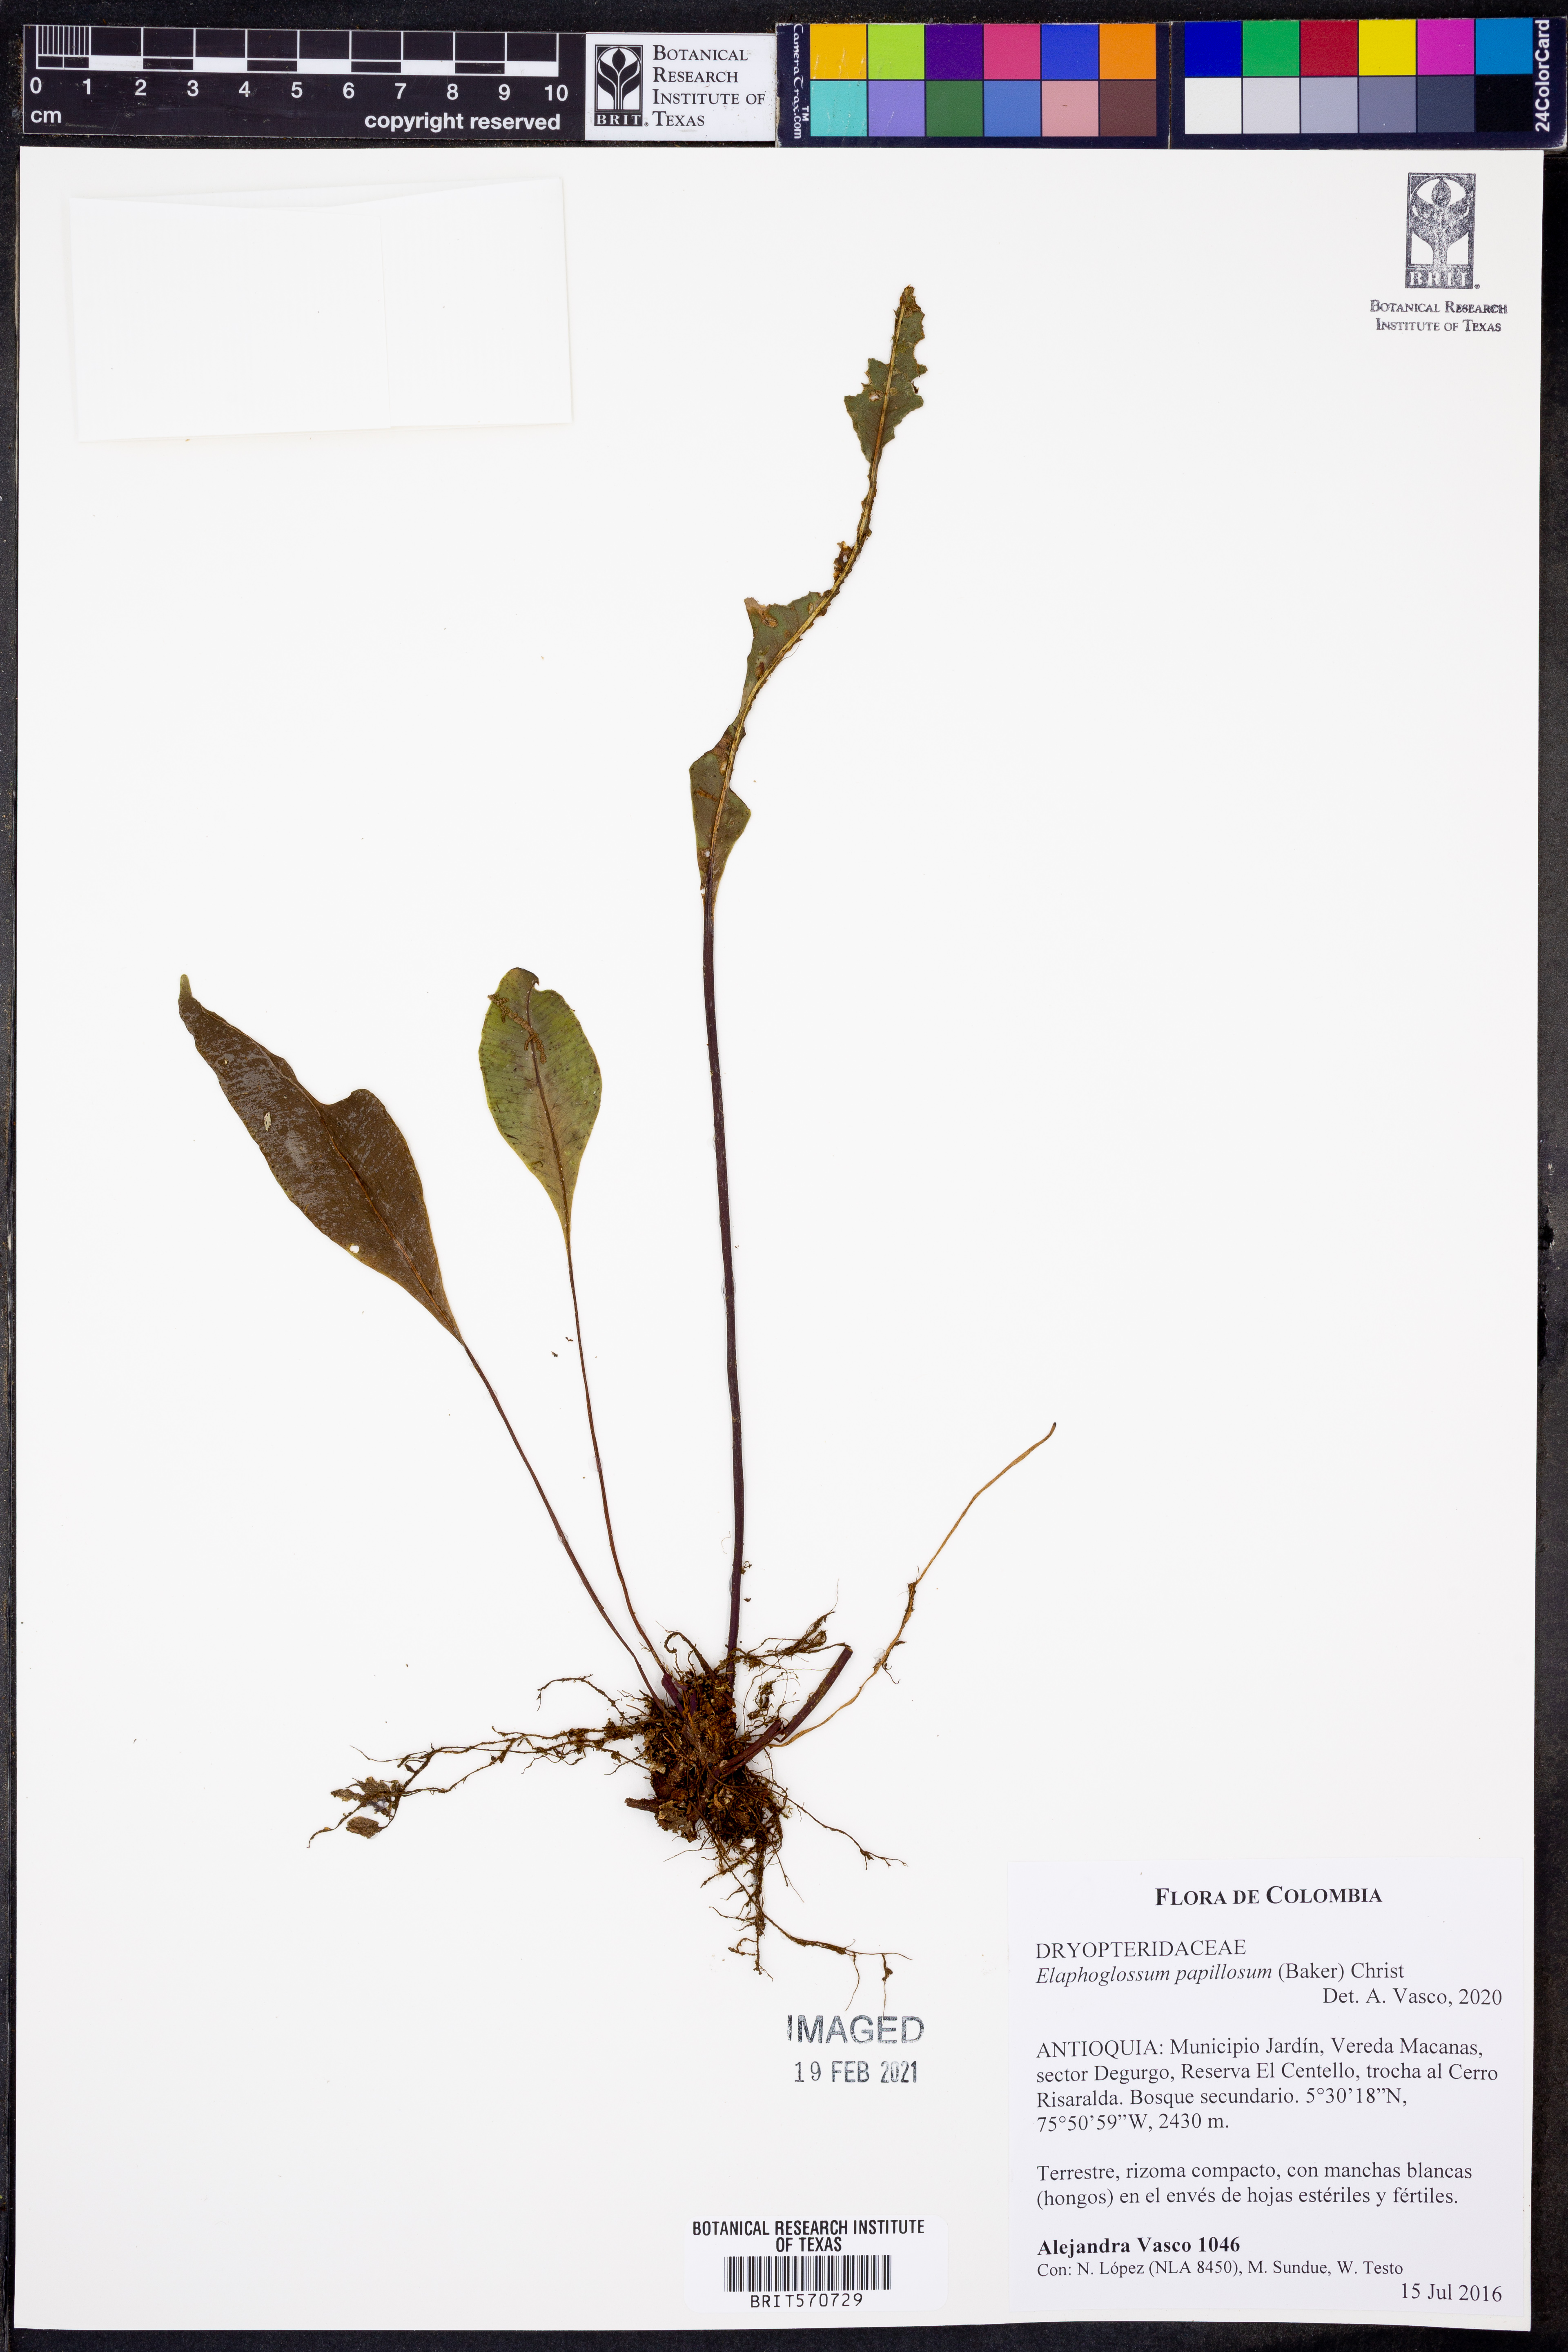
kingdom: Plantae
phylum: Tracheophyta
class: Polypodiopsida
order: Polypodiales
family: Dryopteridaceae
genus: Elaphoglossum
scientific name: Elaphoglossum papillosum
